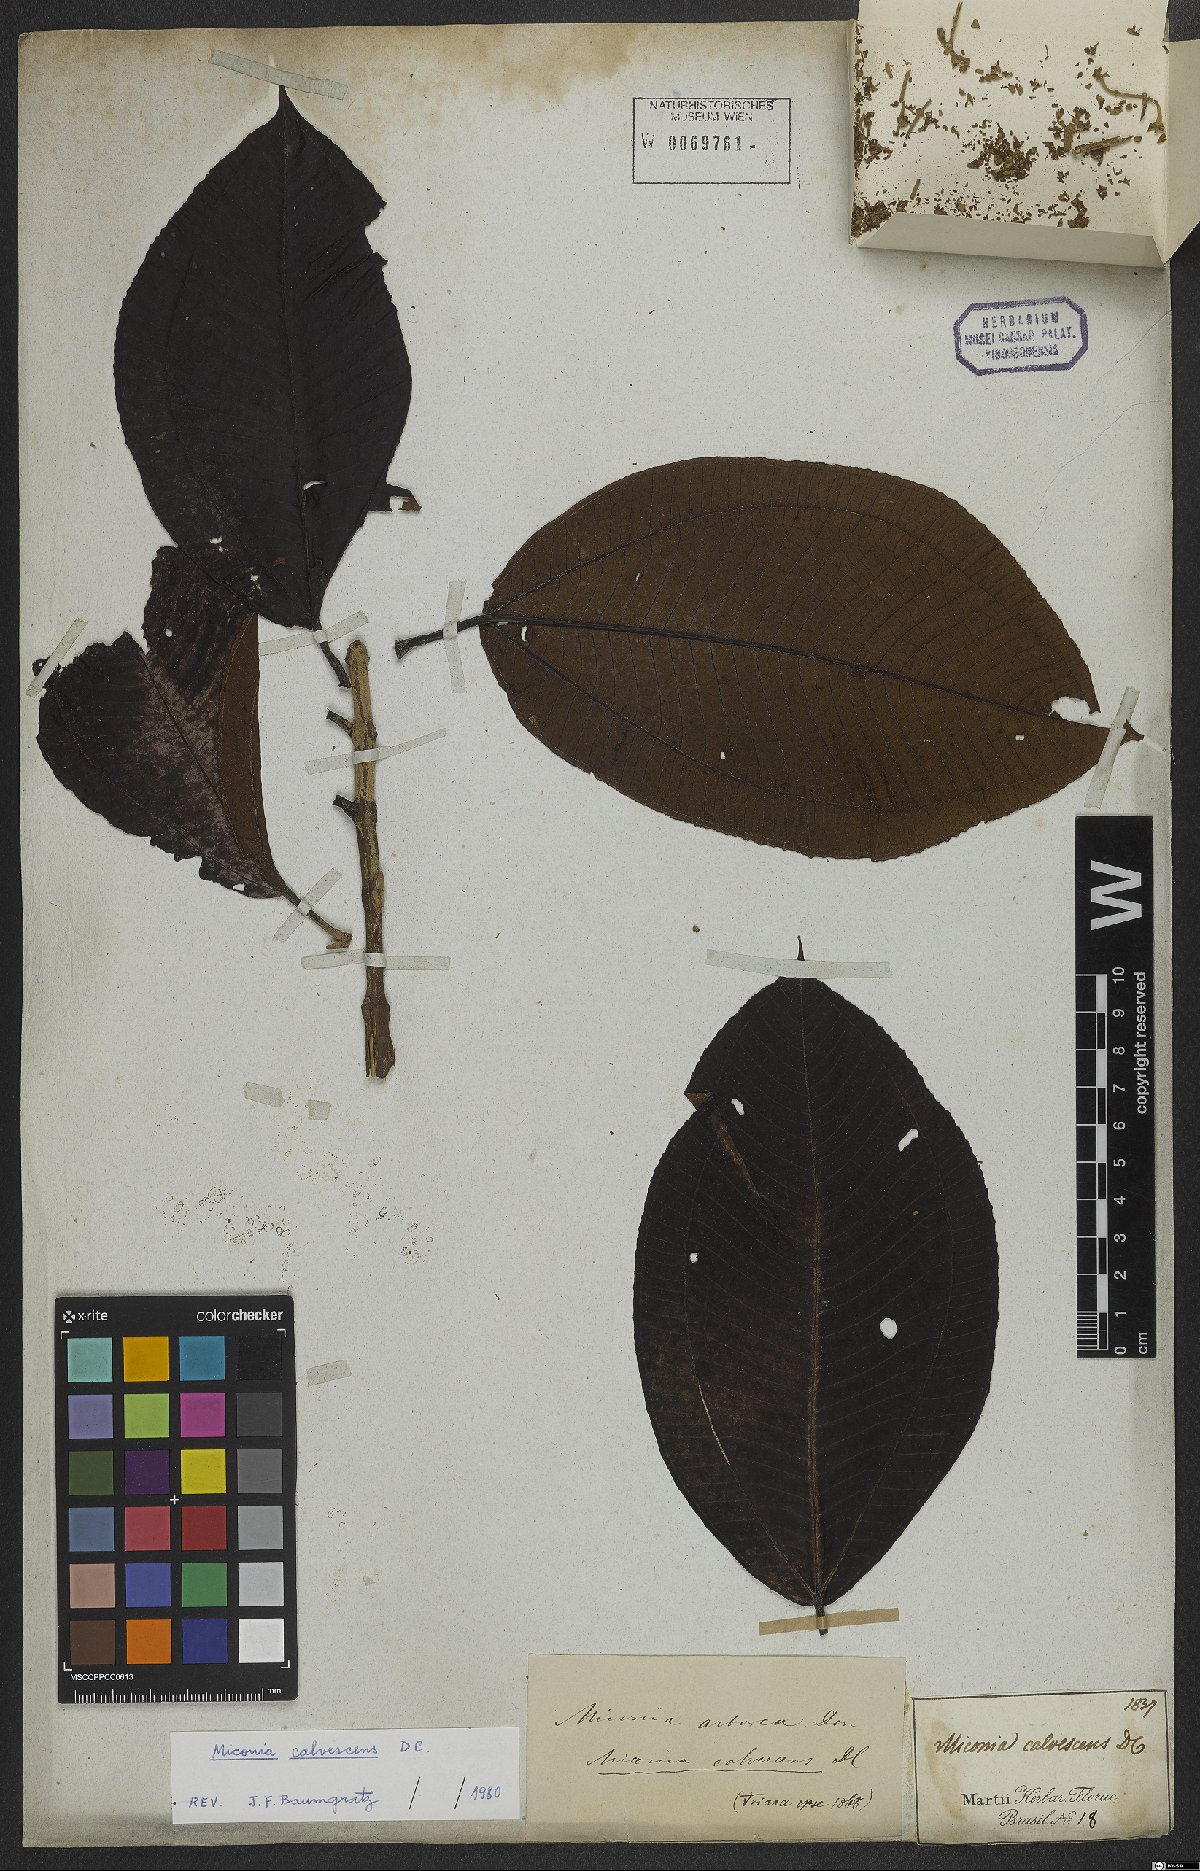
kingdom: Plantae
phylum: Tracheophyta
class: Magnoliopsida
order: Myrtales
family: Melastomataceae
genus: Miconia
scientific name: Miconia calvescens
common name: Purple plague
